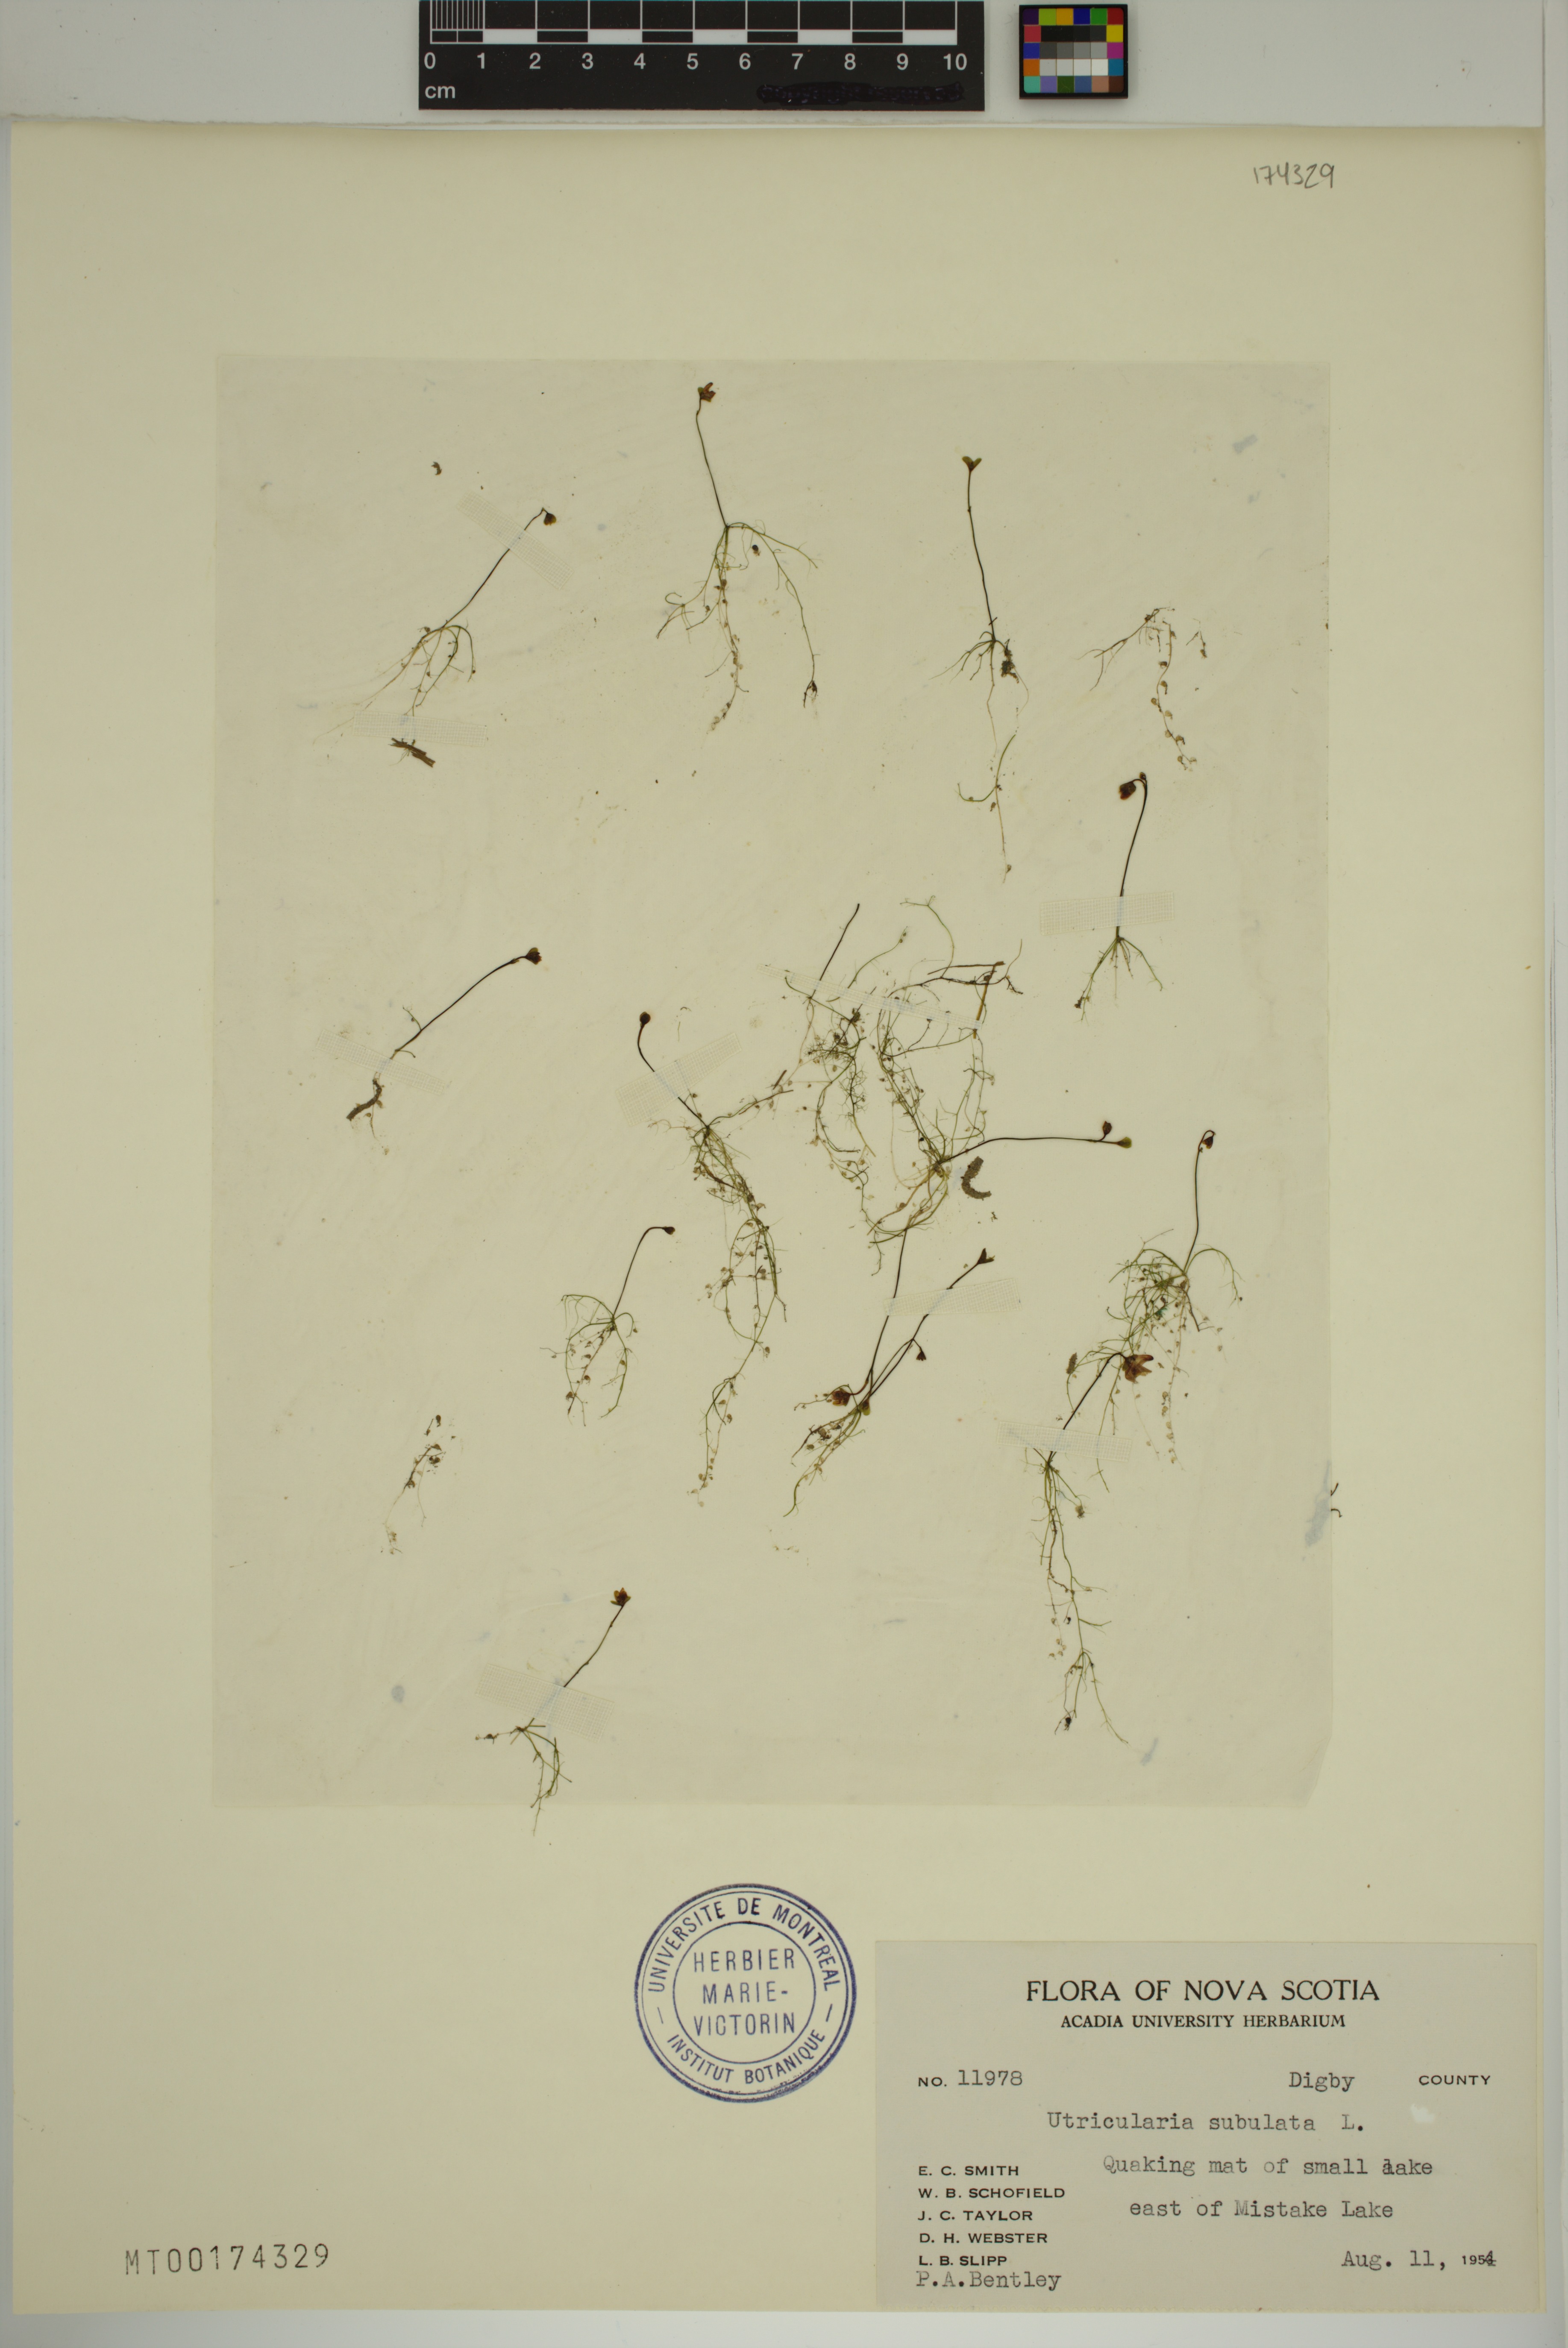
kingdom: Plantae
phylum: Tracheophyta
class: Magnoliopsida
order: Lamiales
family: Lentibulariaceae
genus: Utricularia
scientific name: Utricularia subulata
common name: Tiny bladderwort
